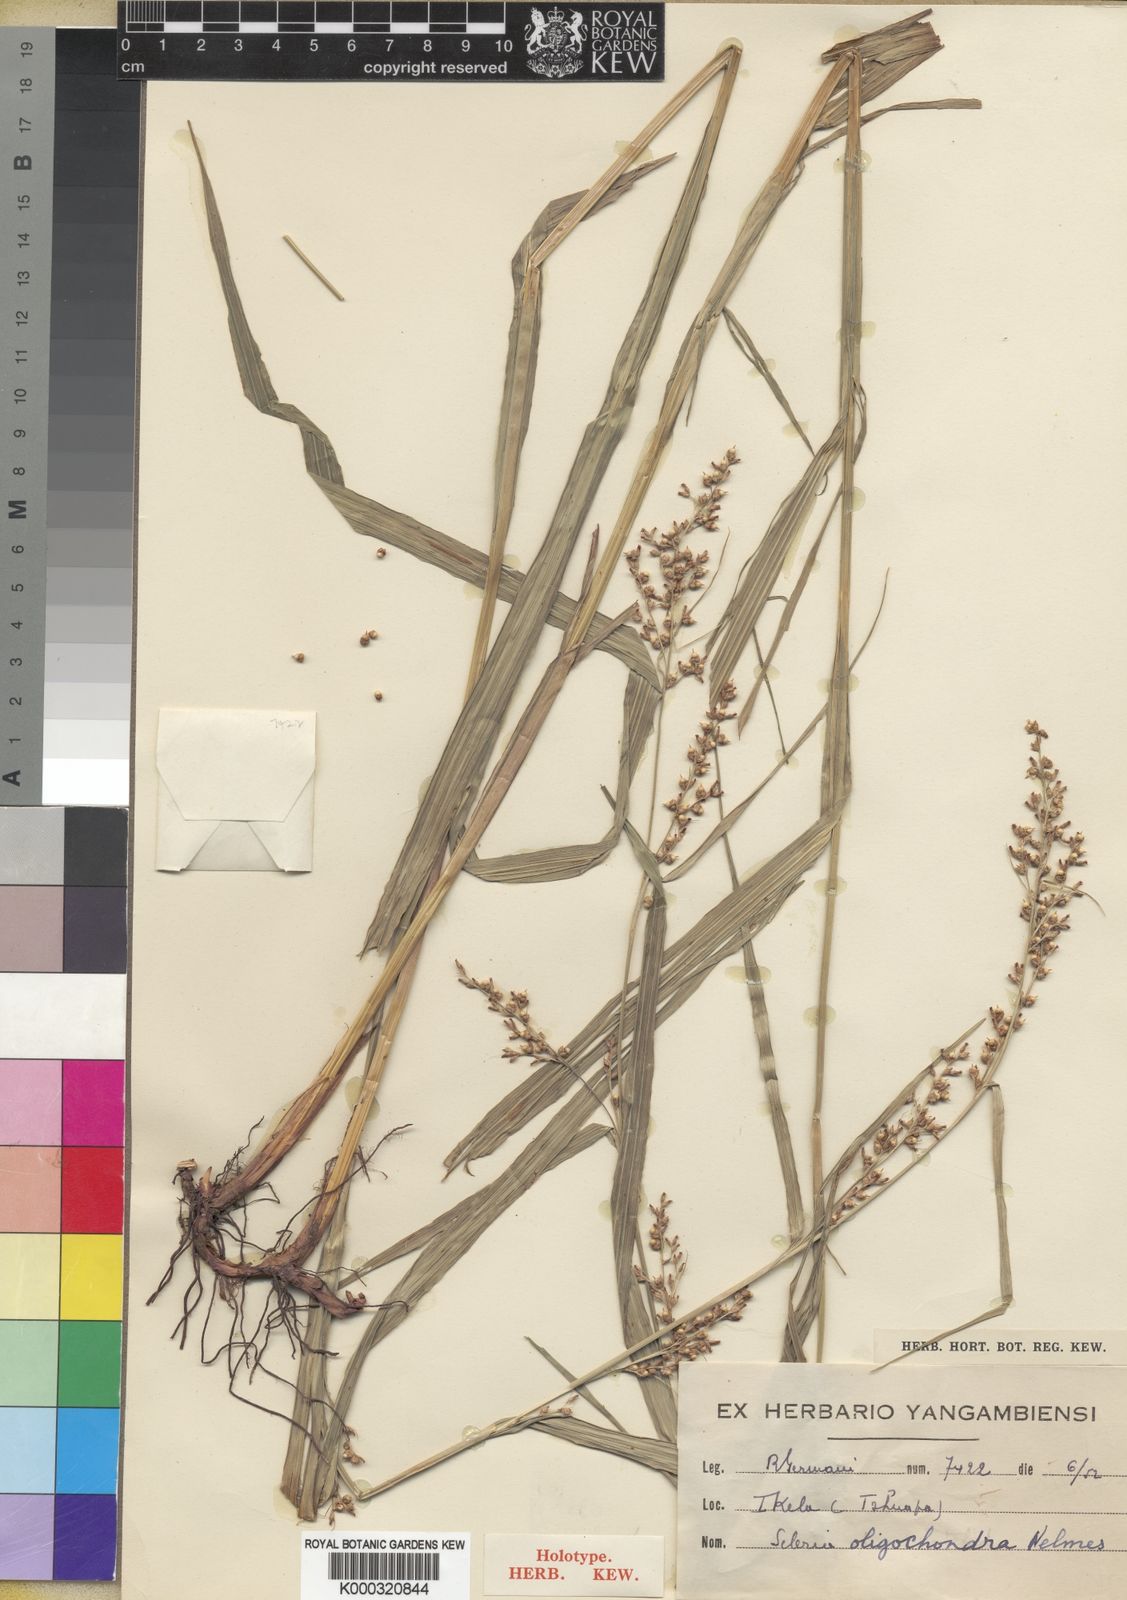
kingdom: Plantae
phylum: Tracheophyta
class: Liliopsida
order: Poales
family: Cyperaceae
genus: Scleria
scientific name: Scleria oligochondra
